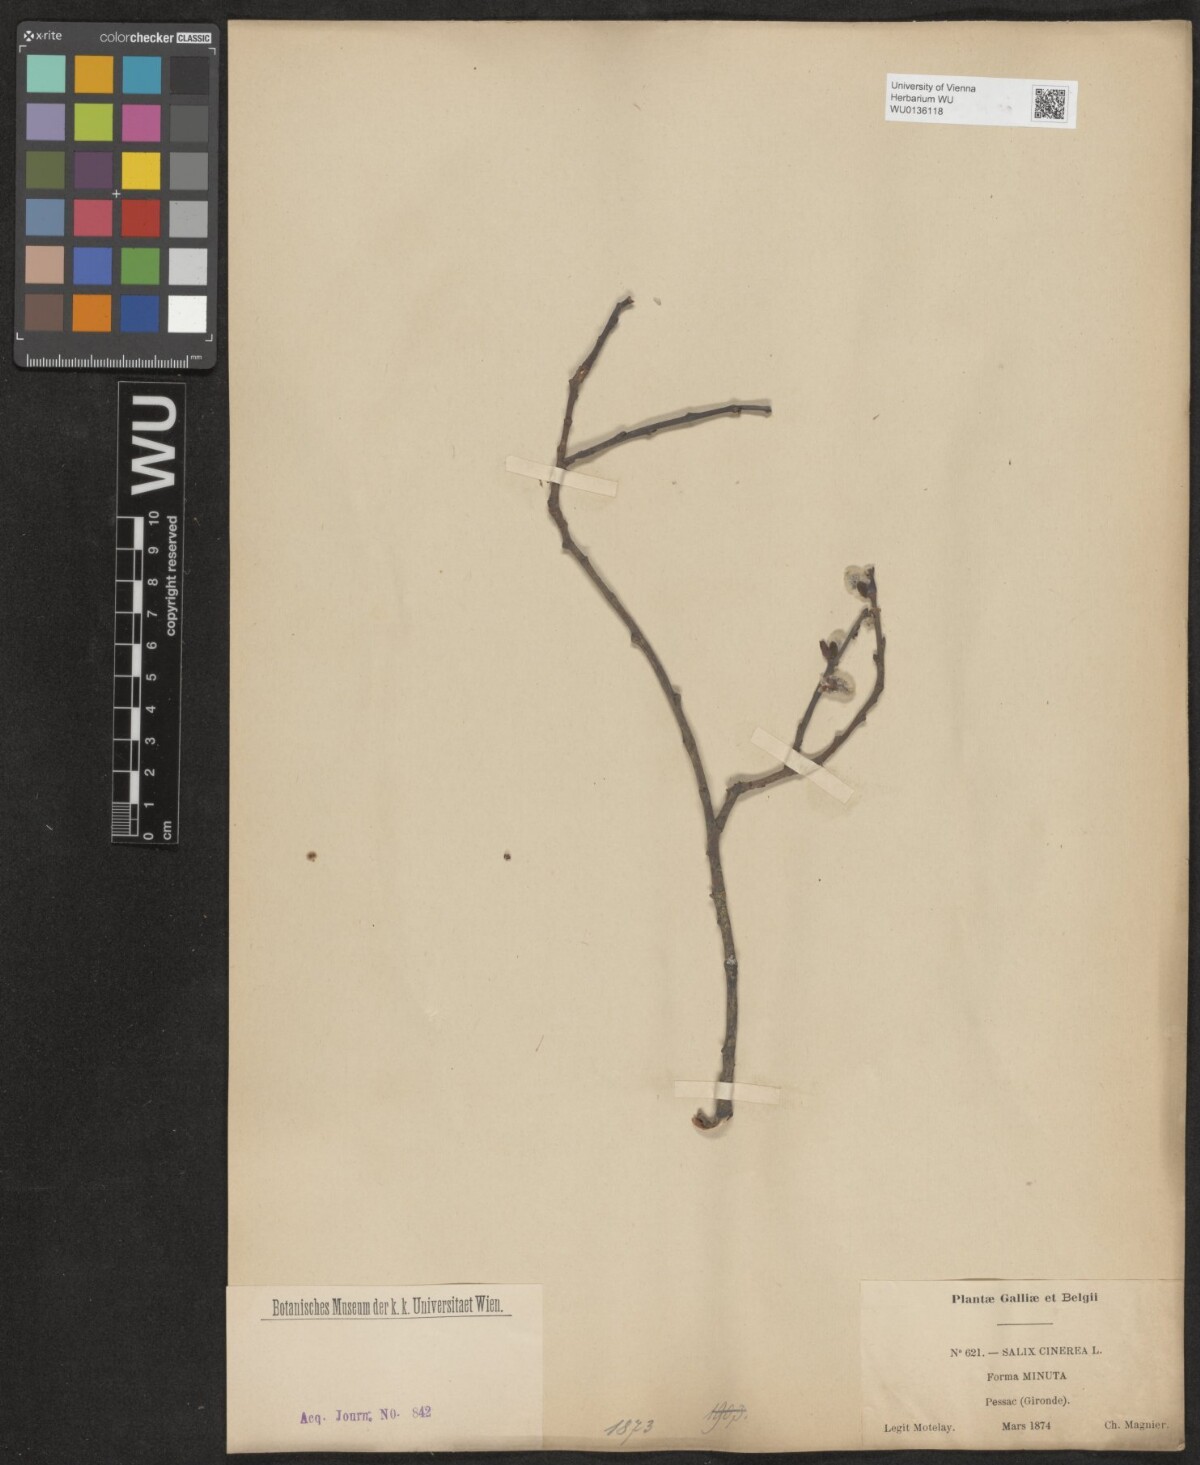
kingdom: Plantae
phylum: Tracheophyta
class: Magnoliopsida
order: Malpighiales
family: Salicaceae
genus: Salix
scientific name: Salix cinerea
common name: Common sallow
